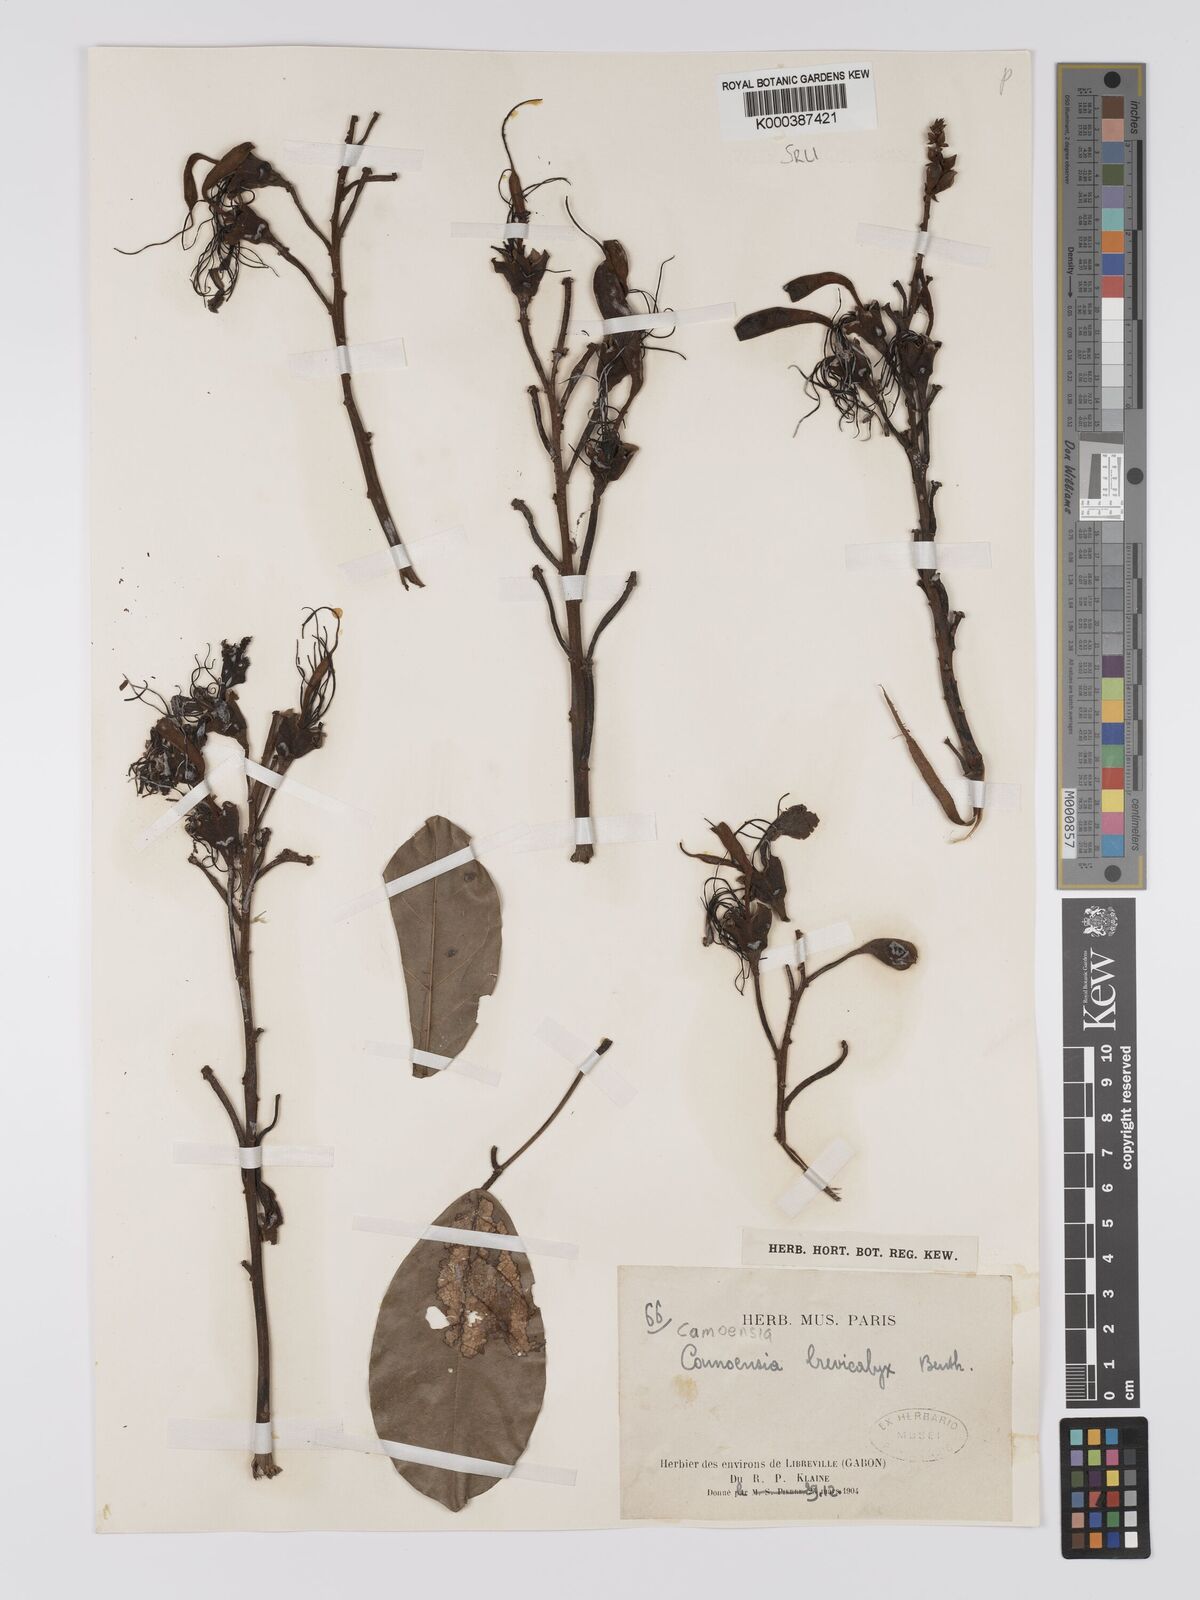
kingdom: Plantae
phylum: Tracheophyta
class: Magnoliopsida
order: Fabales
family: Fabaceae
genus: Camoensia
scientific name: Camoensia brevicalyx
